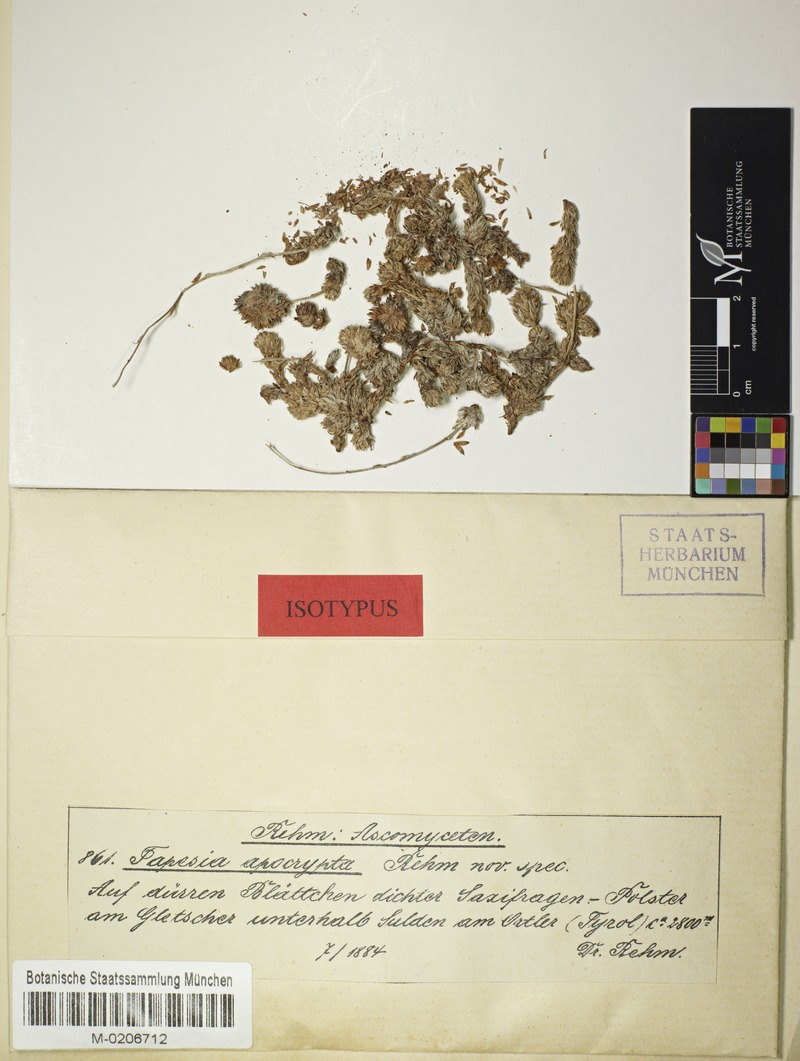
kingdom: Fungi
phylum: Ascomycota
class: Leotiomycetes
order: Helotiales
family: Mollisiaceae
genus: Tapesia
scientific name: Tapesia apocrypta
